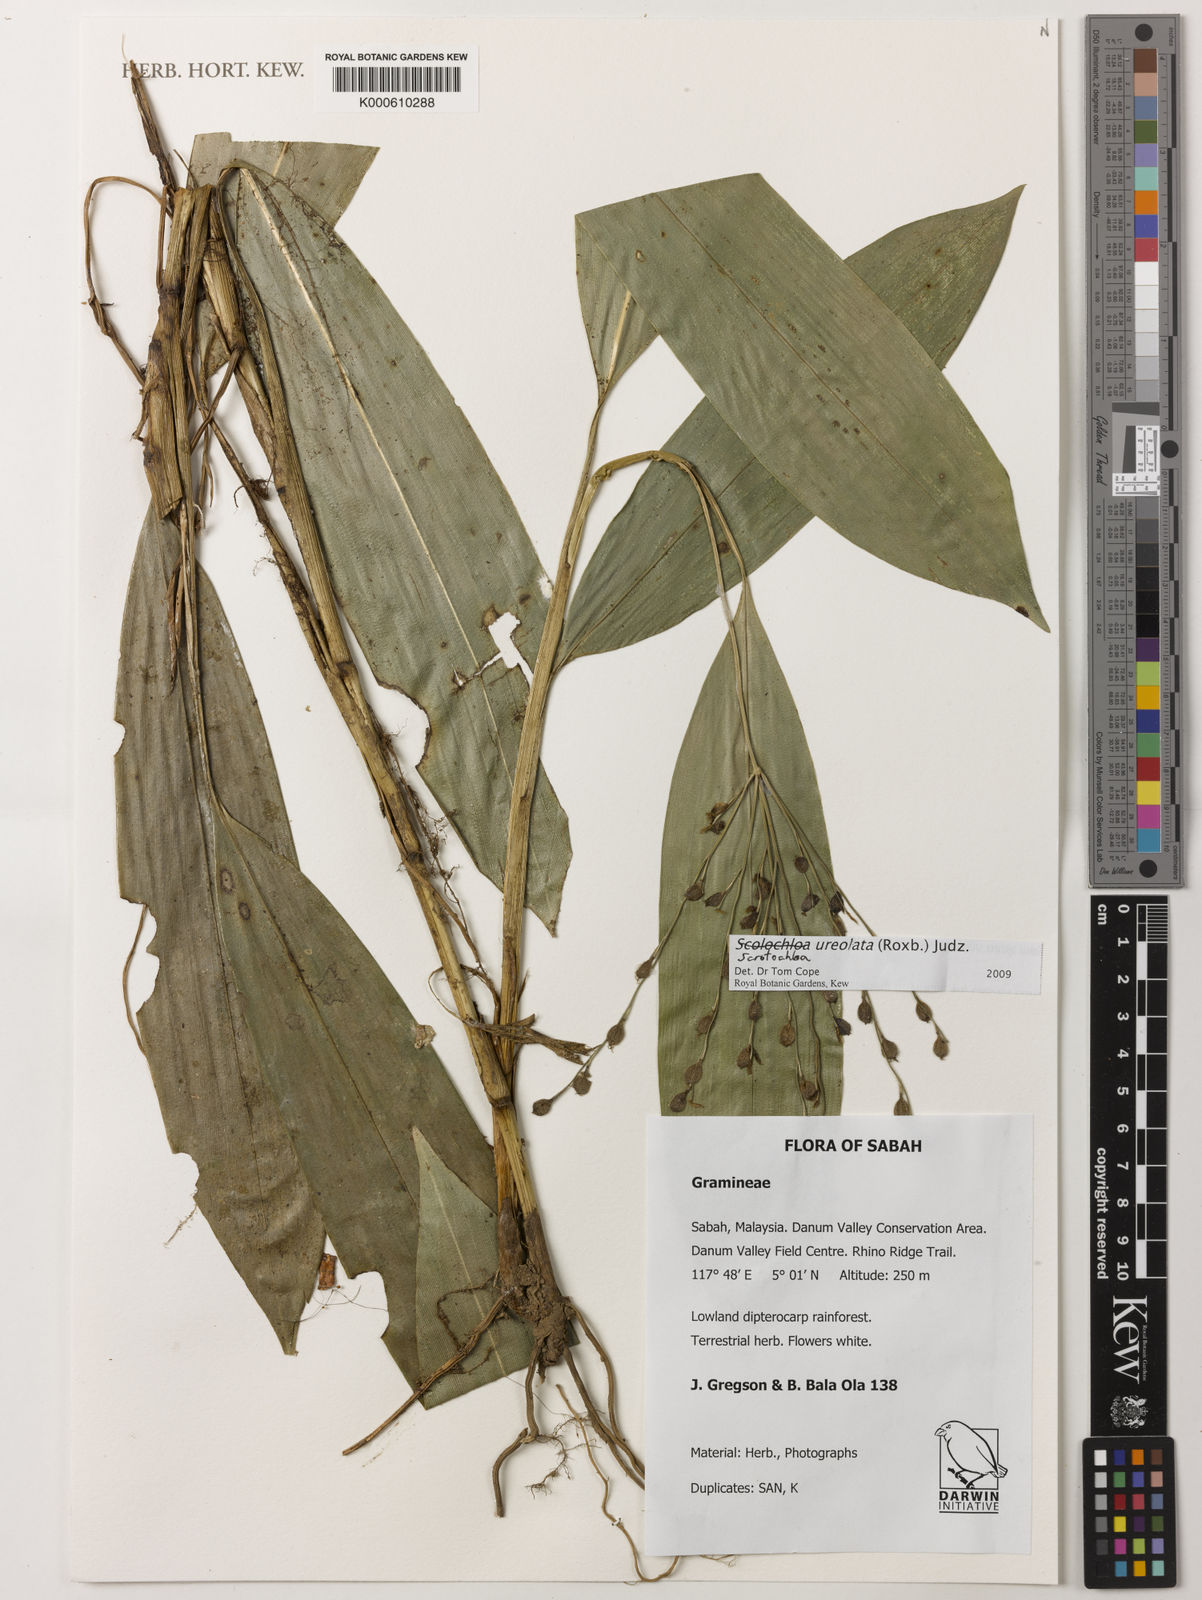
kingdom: Plantae
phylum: Tracheophyta
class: Liliopsida
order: Poales
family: Poaceae
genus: Scolochloa
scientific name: Scolochloa
